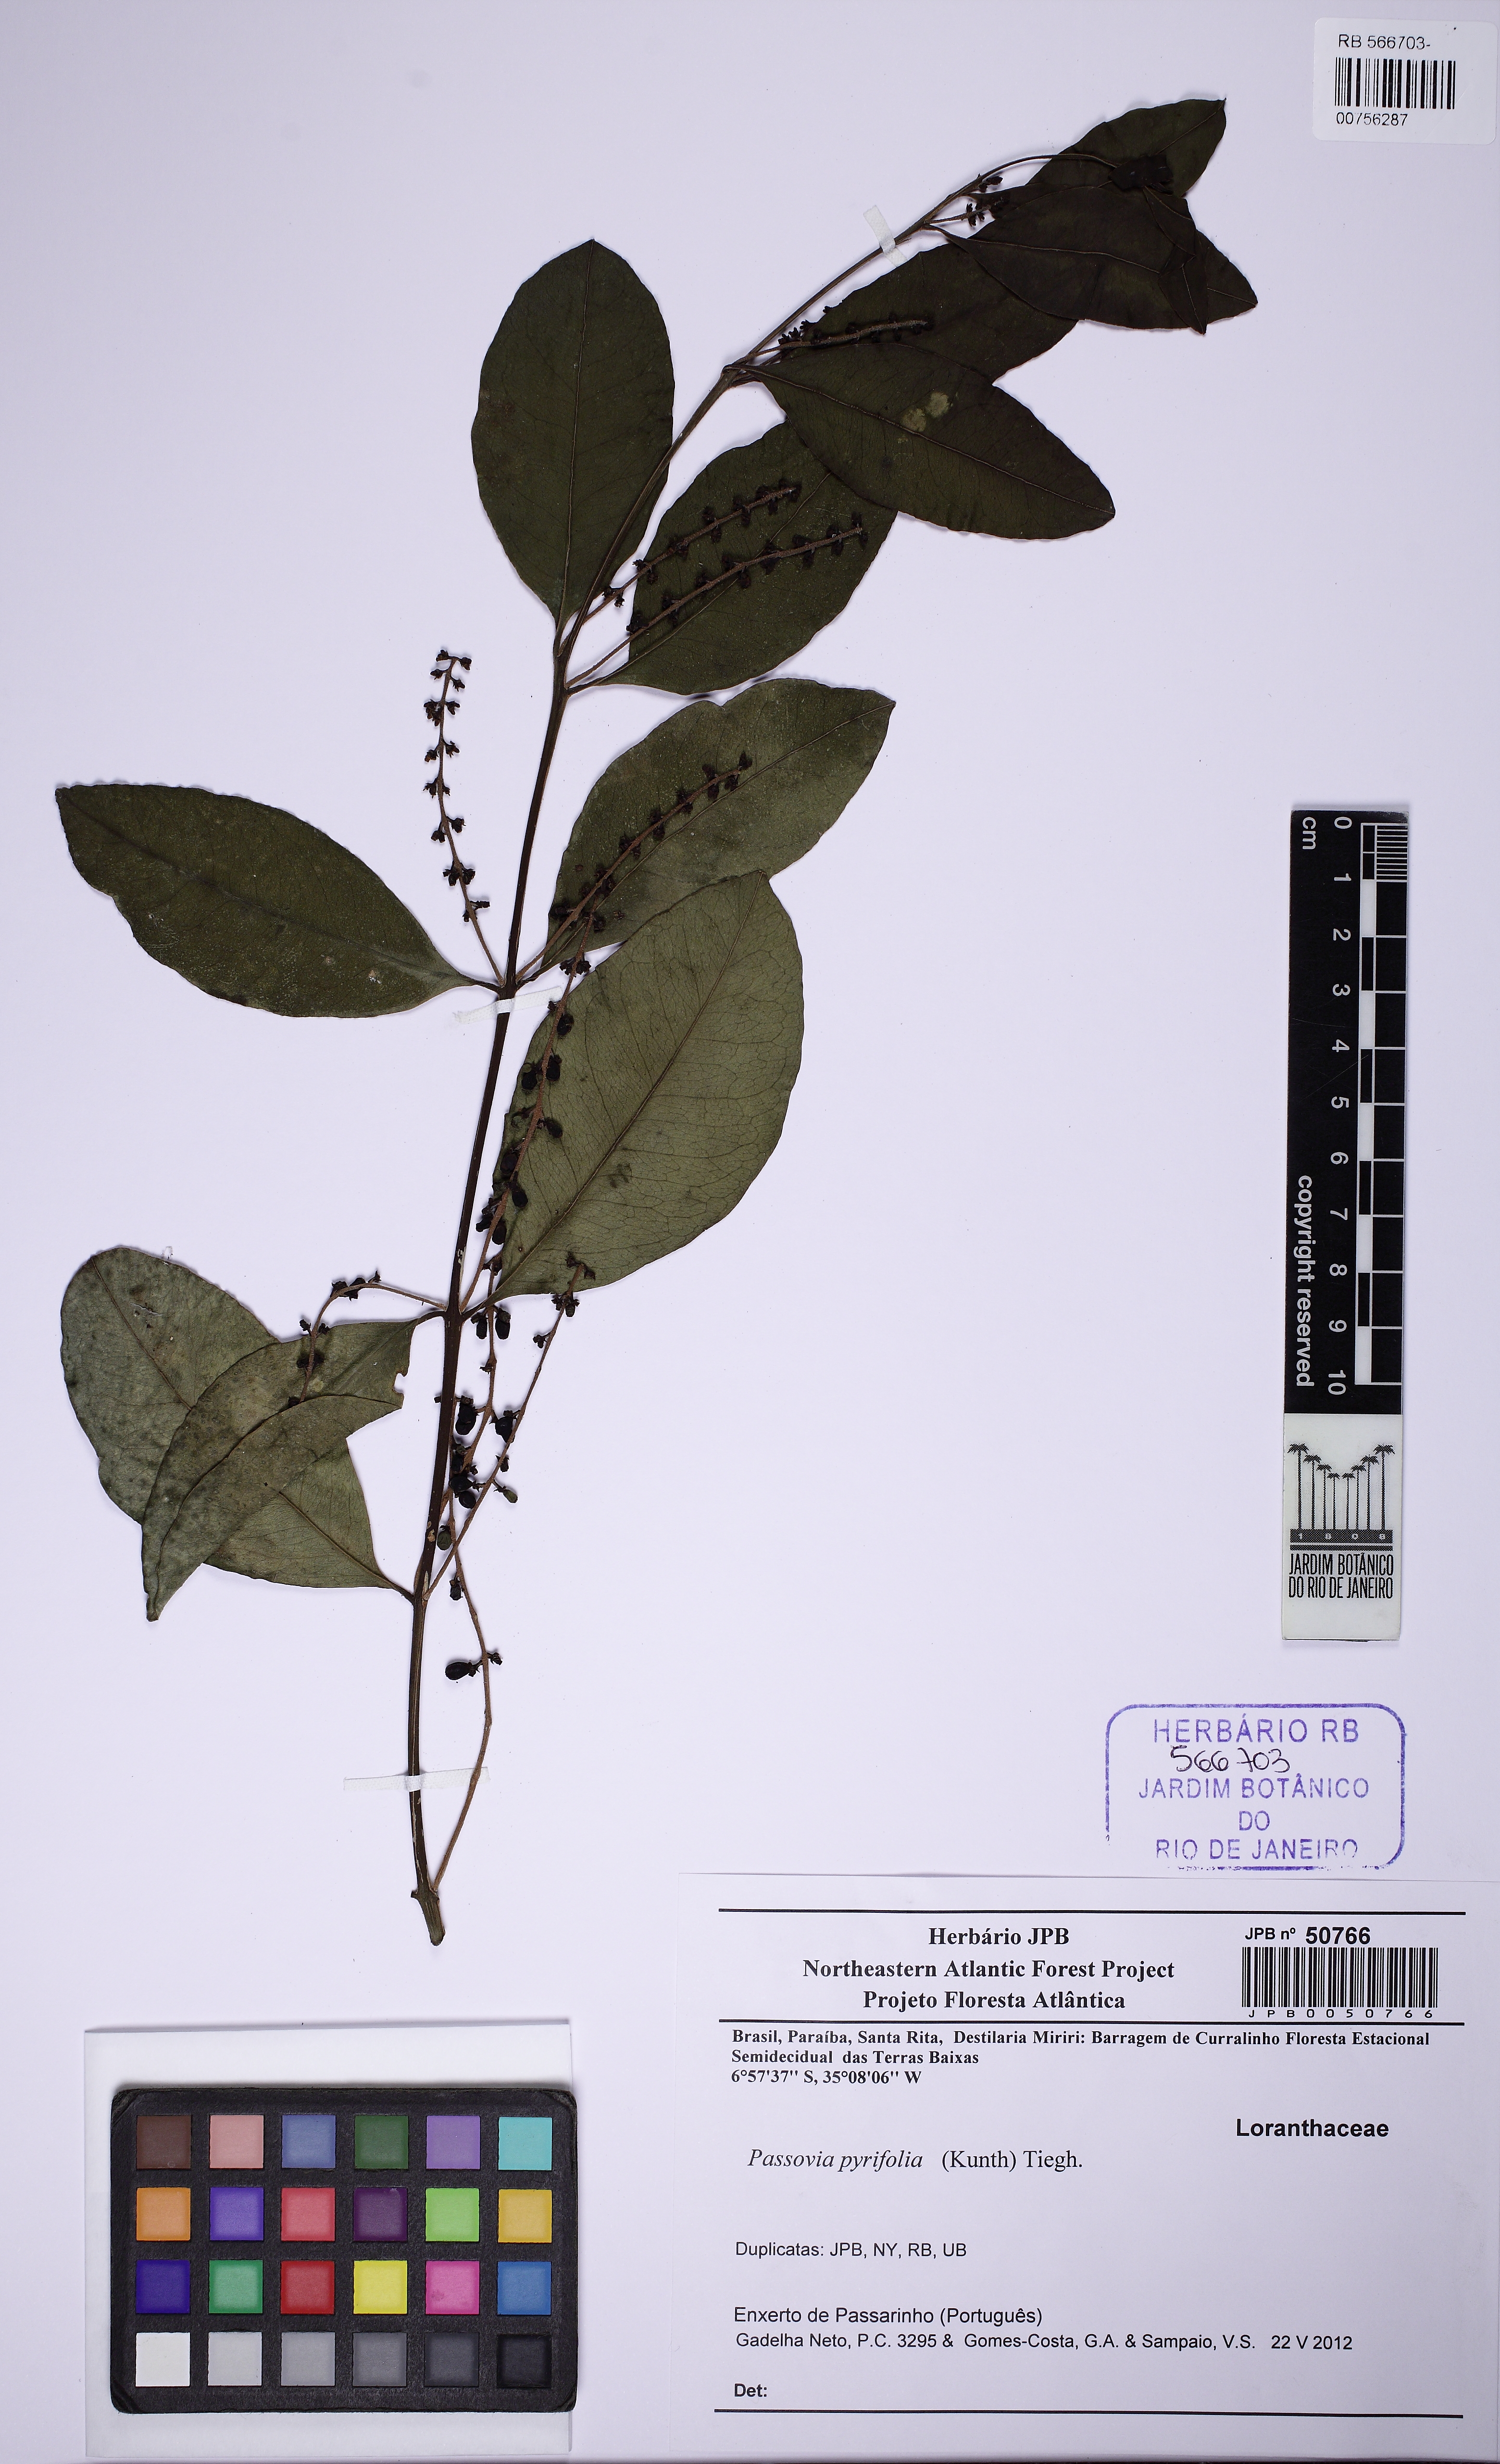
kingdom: Plantae
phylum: Tracheophyta
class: Magnoliopsida
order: Santalales
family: Loranthaceae
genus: Passovia
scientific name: Passovia pyrifolia
